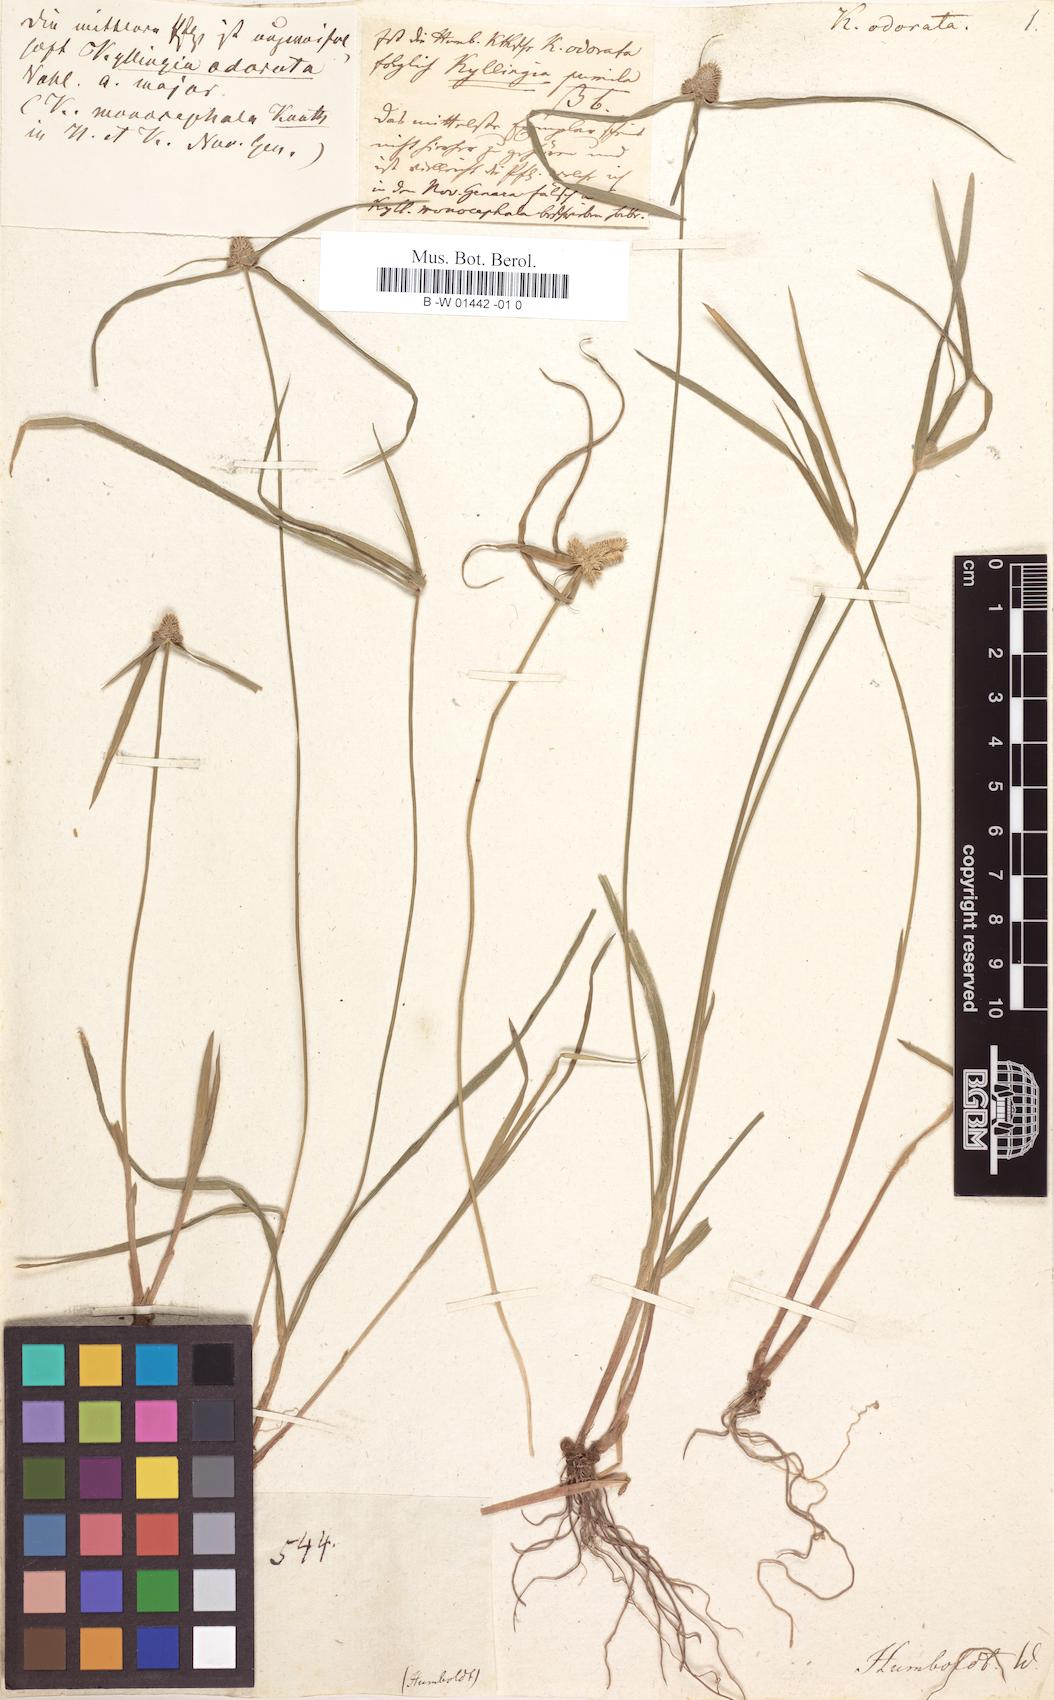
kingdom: Plantae
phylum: Tracheophyta
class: Liliopsida
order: Poales
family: Cyperaceae
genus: Cyperus
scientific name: Cyperus sesquiflorus
